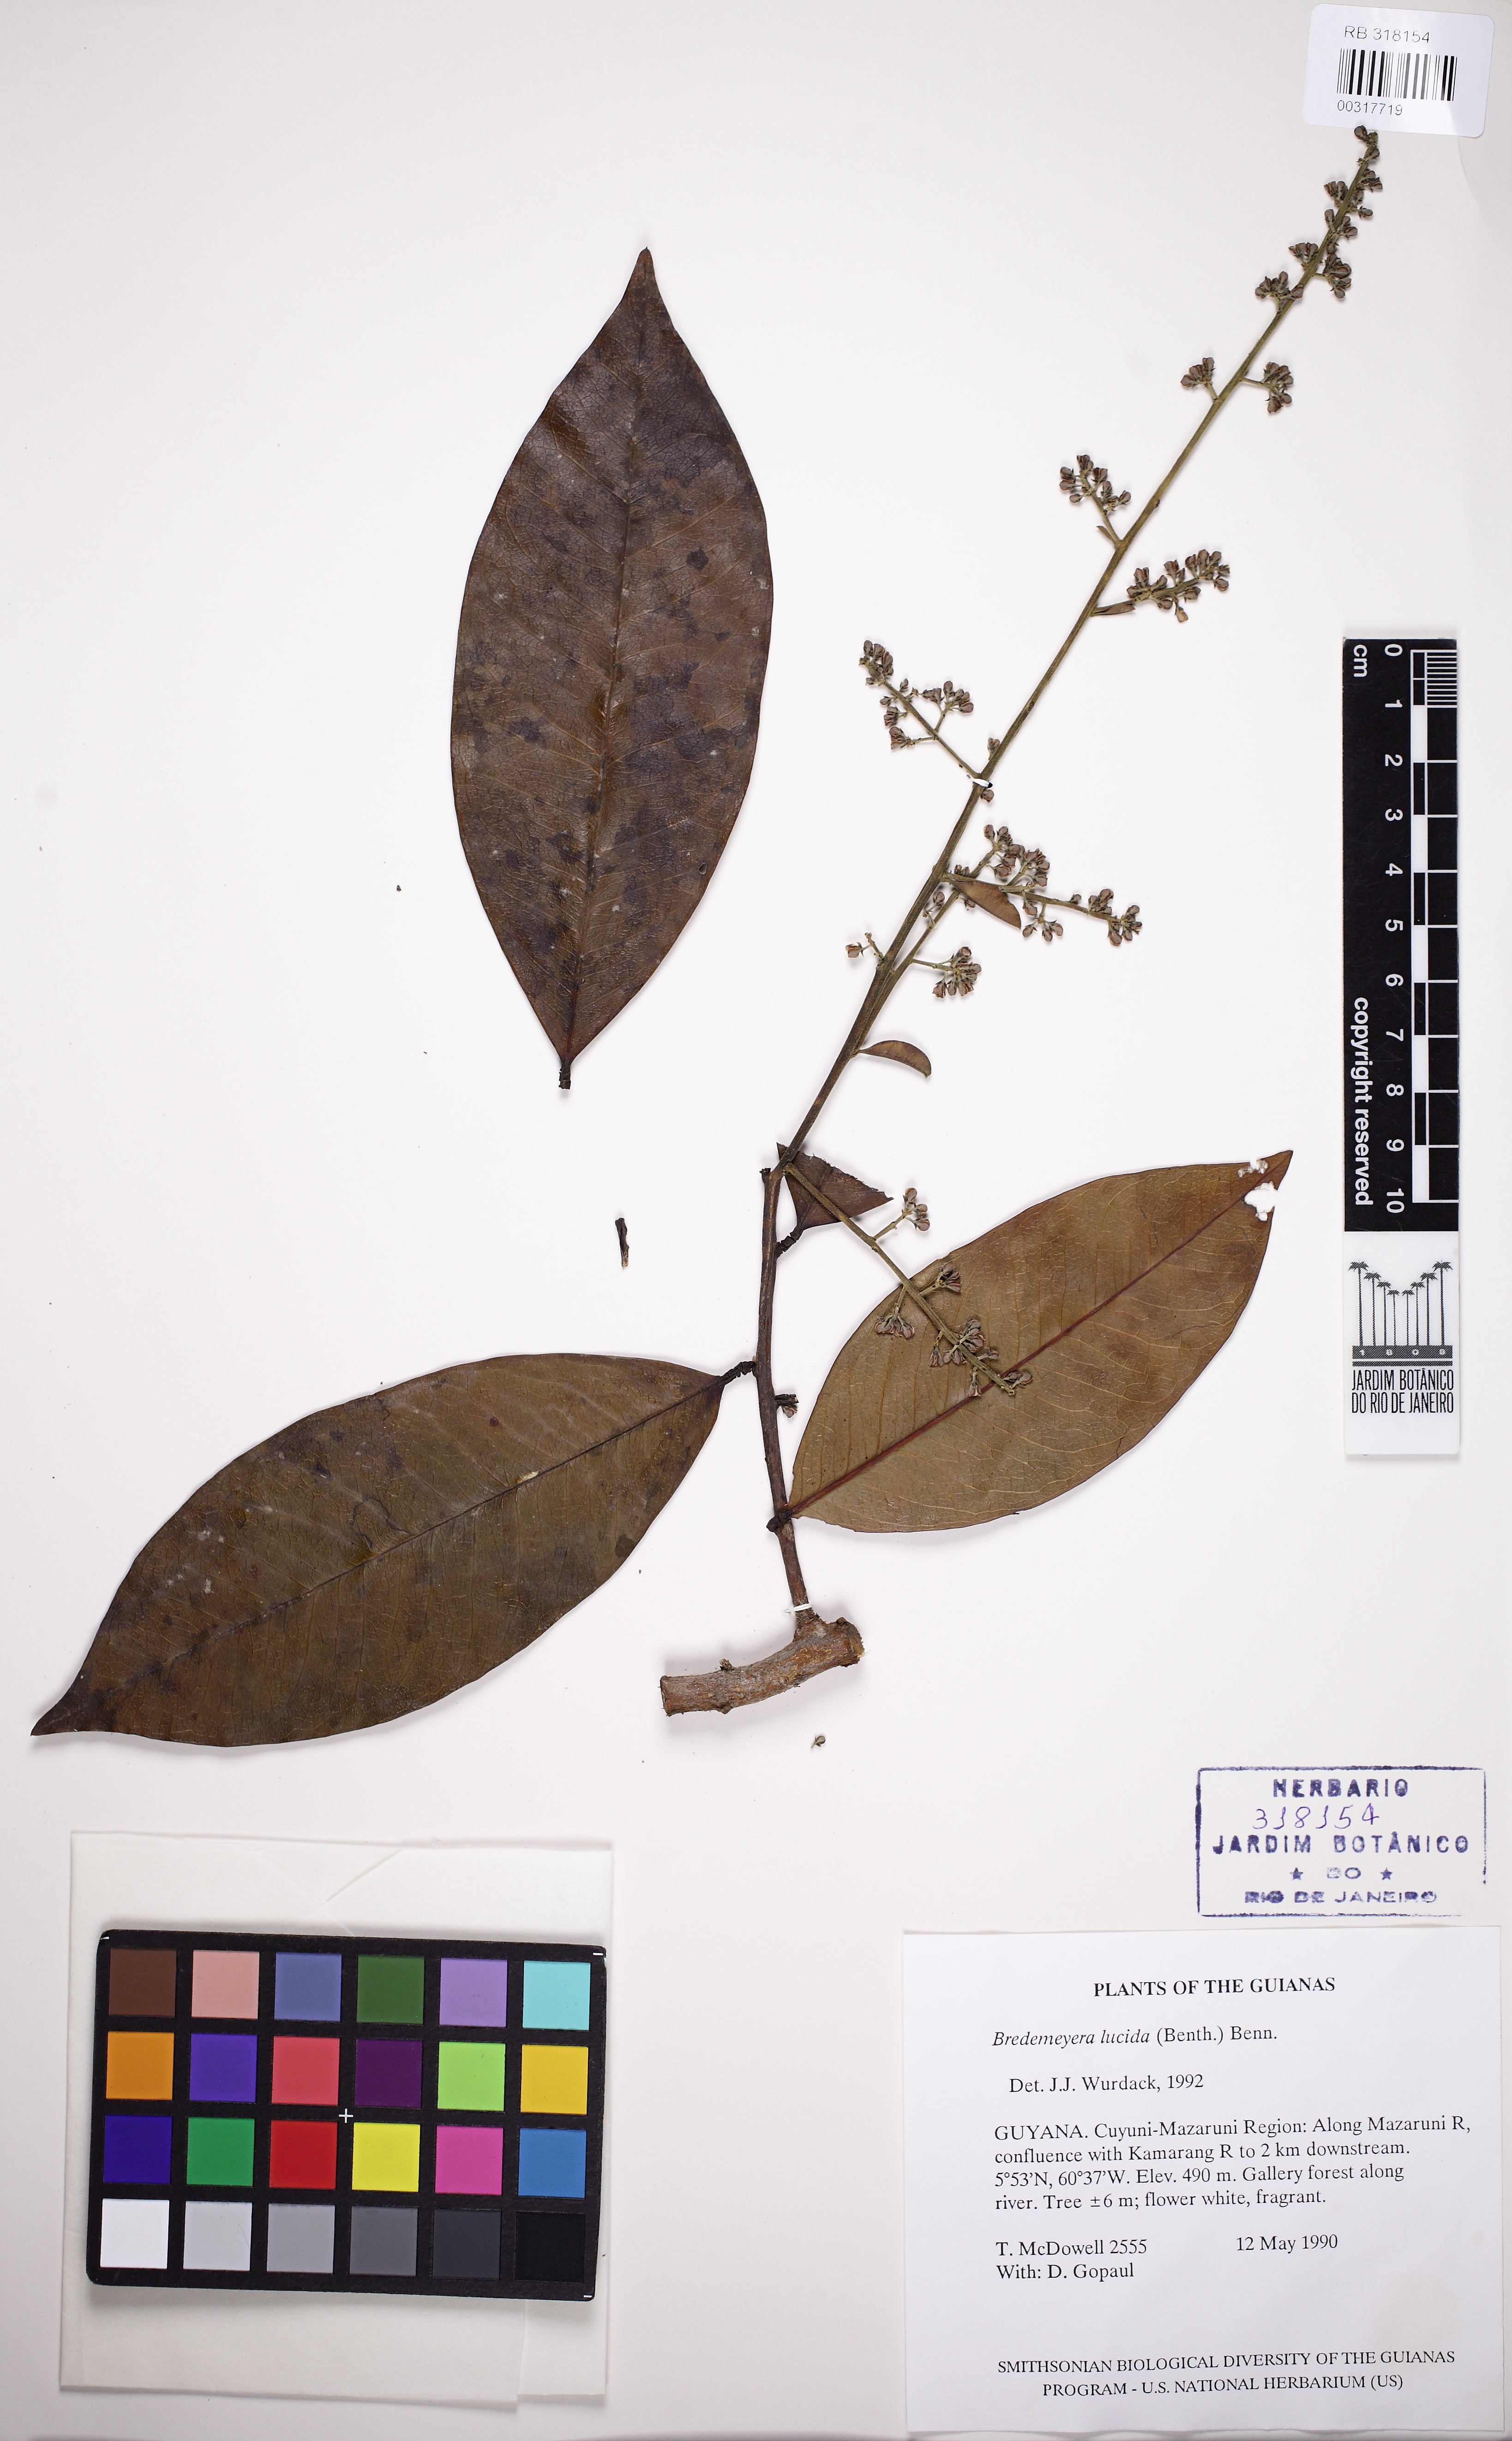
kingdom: Plantae
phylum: Tracheophyta
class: Magnoliopsida
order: Fabales
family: Polygalaceae
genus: Bredemeyera
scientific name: Bredemeyera lucida
